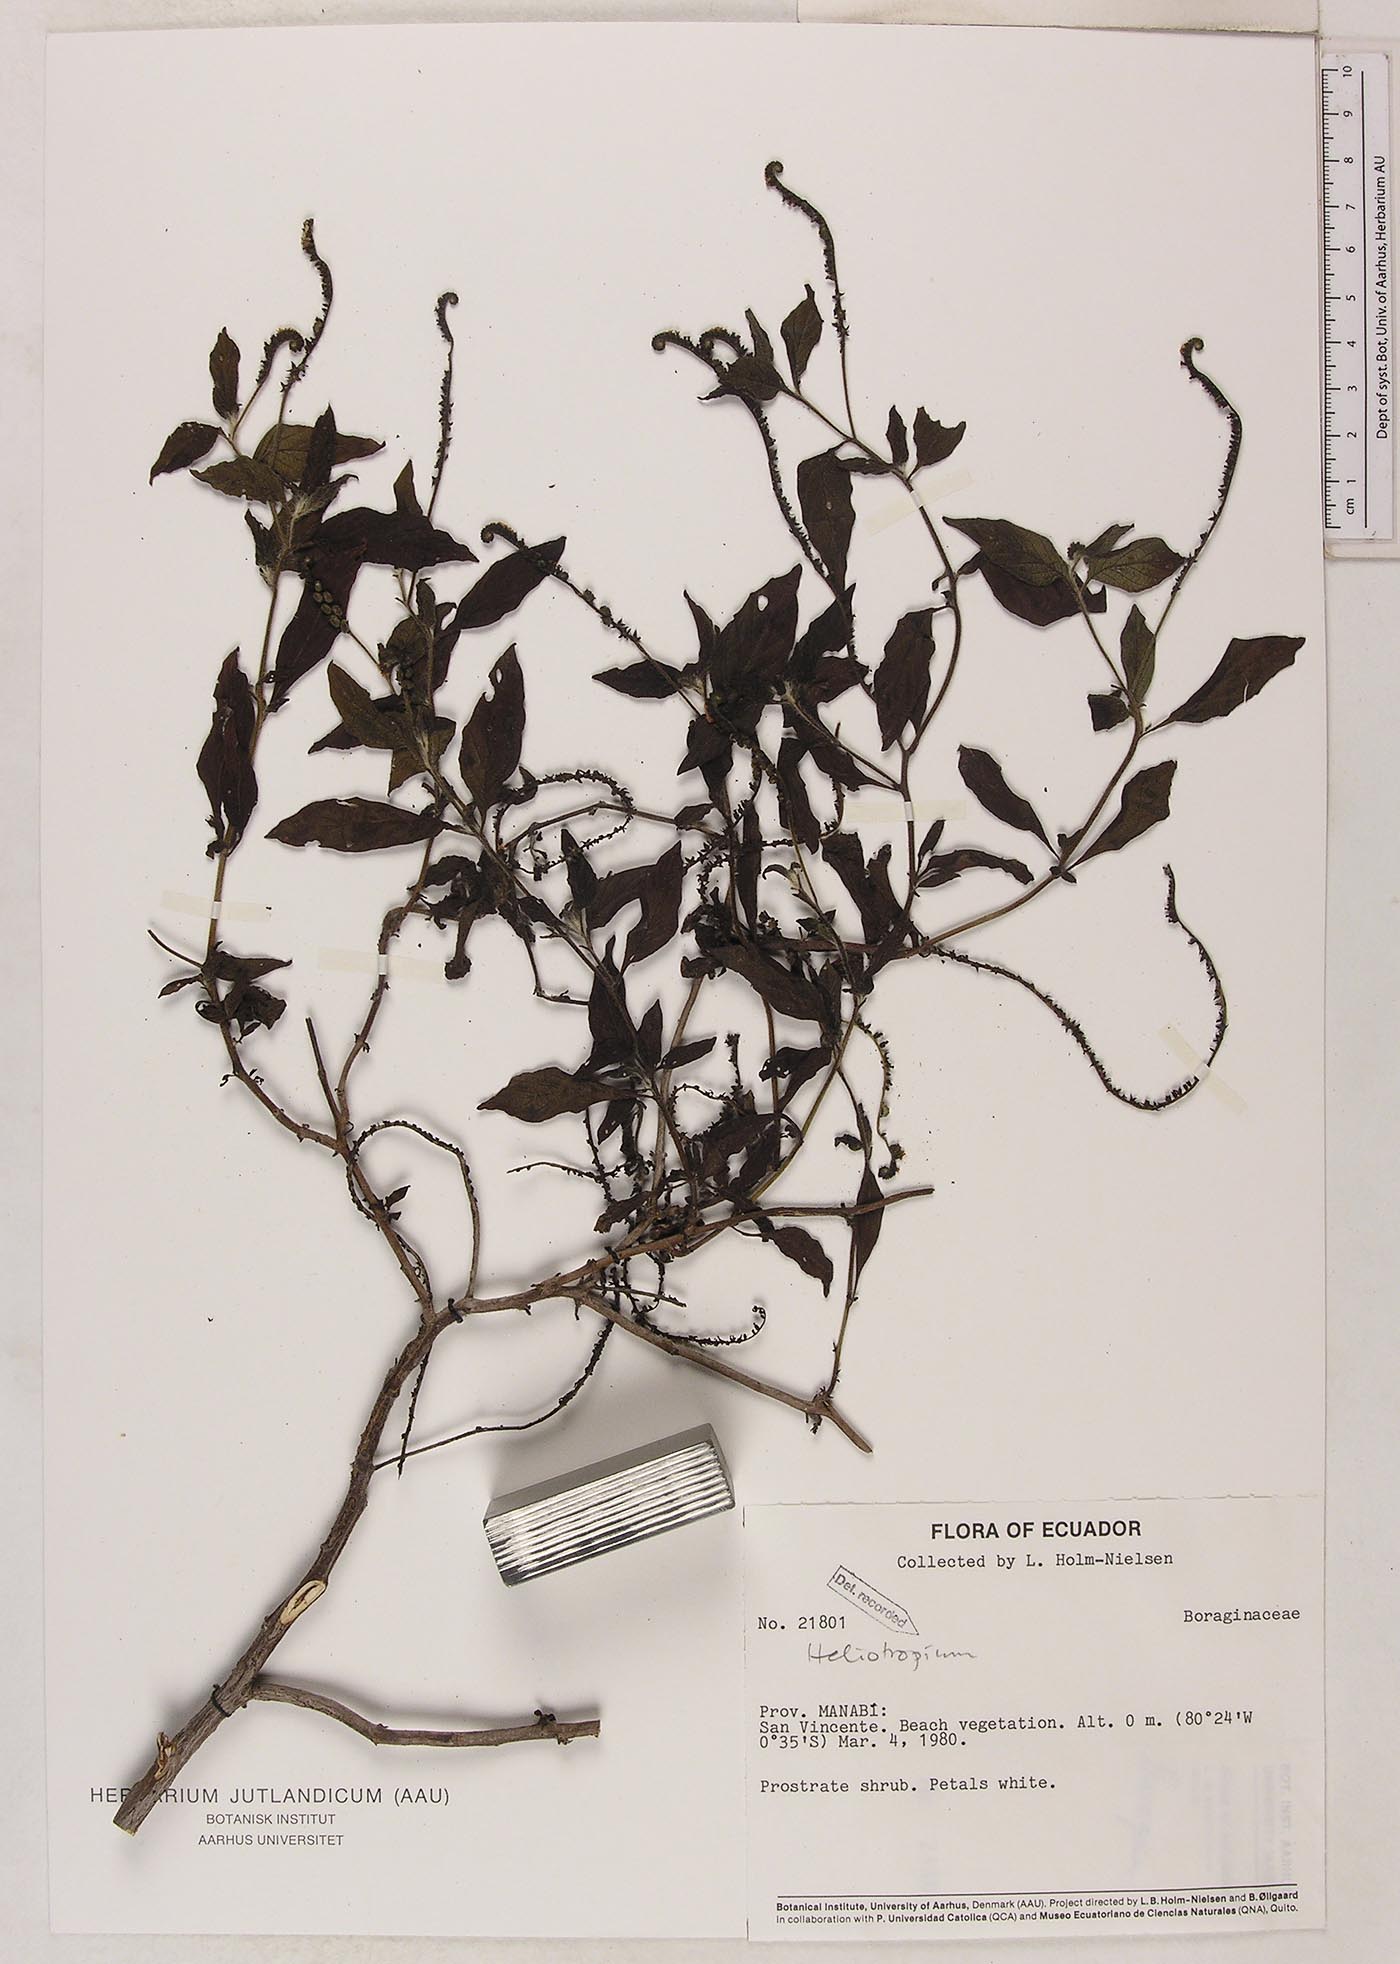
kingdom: Plantae
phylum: Tracheophyta
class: Magnoliopsida
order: Boraginales
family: Heliotropiaceae
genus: Heliotropium
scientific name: Heliotropium angiospermum
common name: Eye bright
